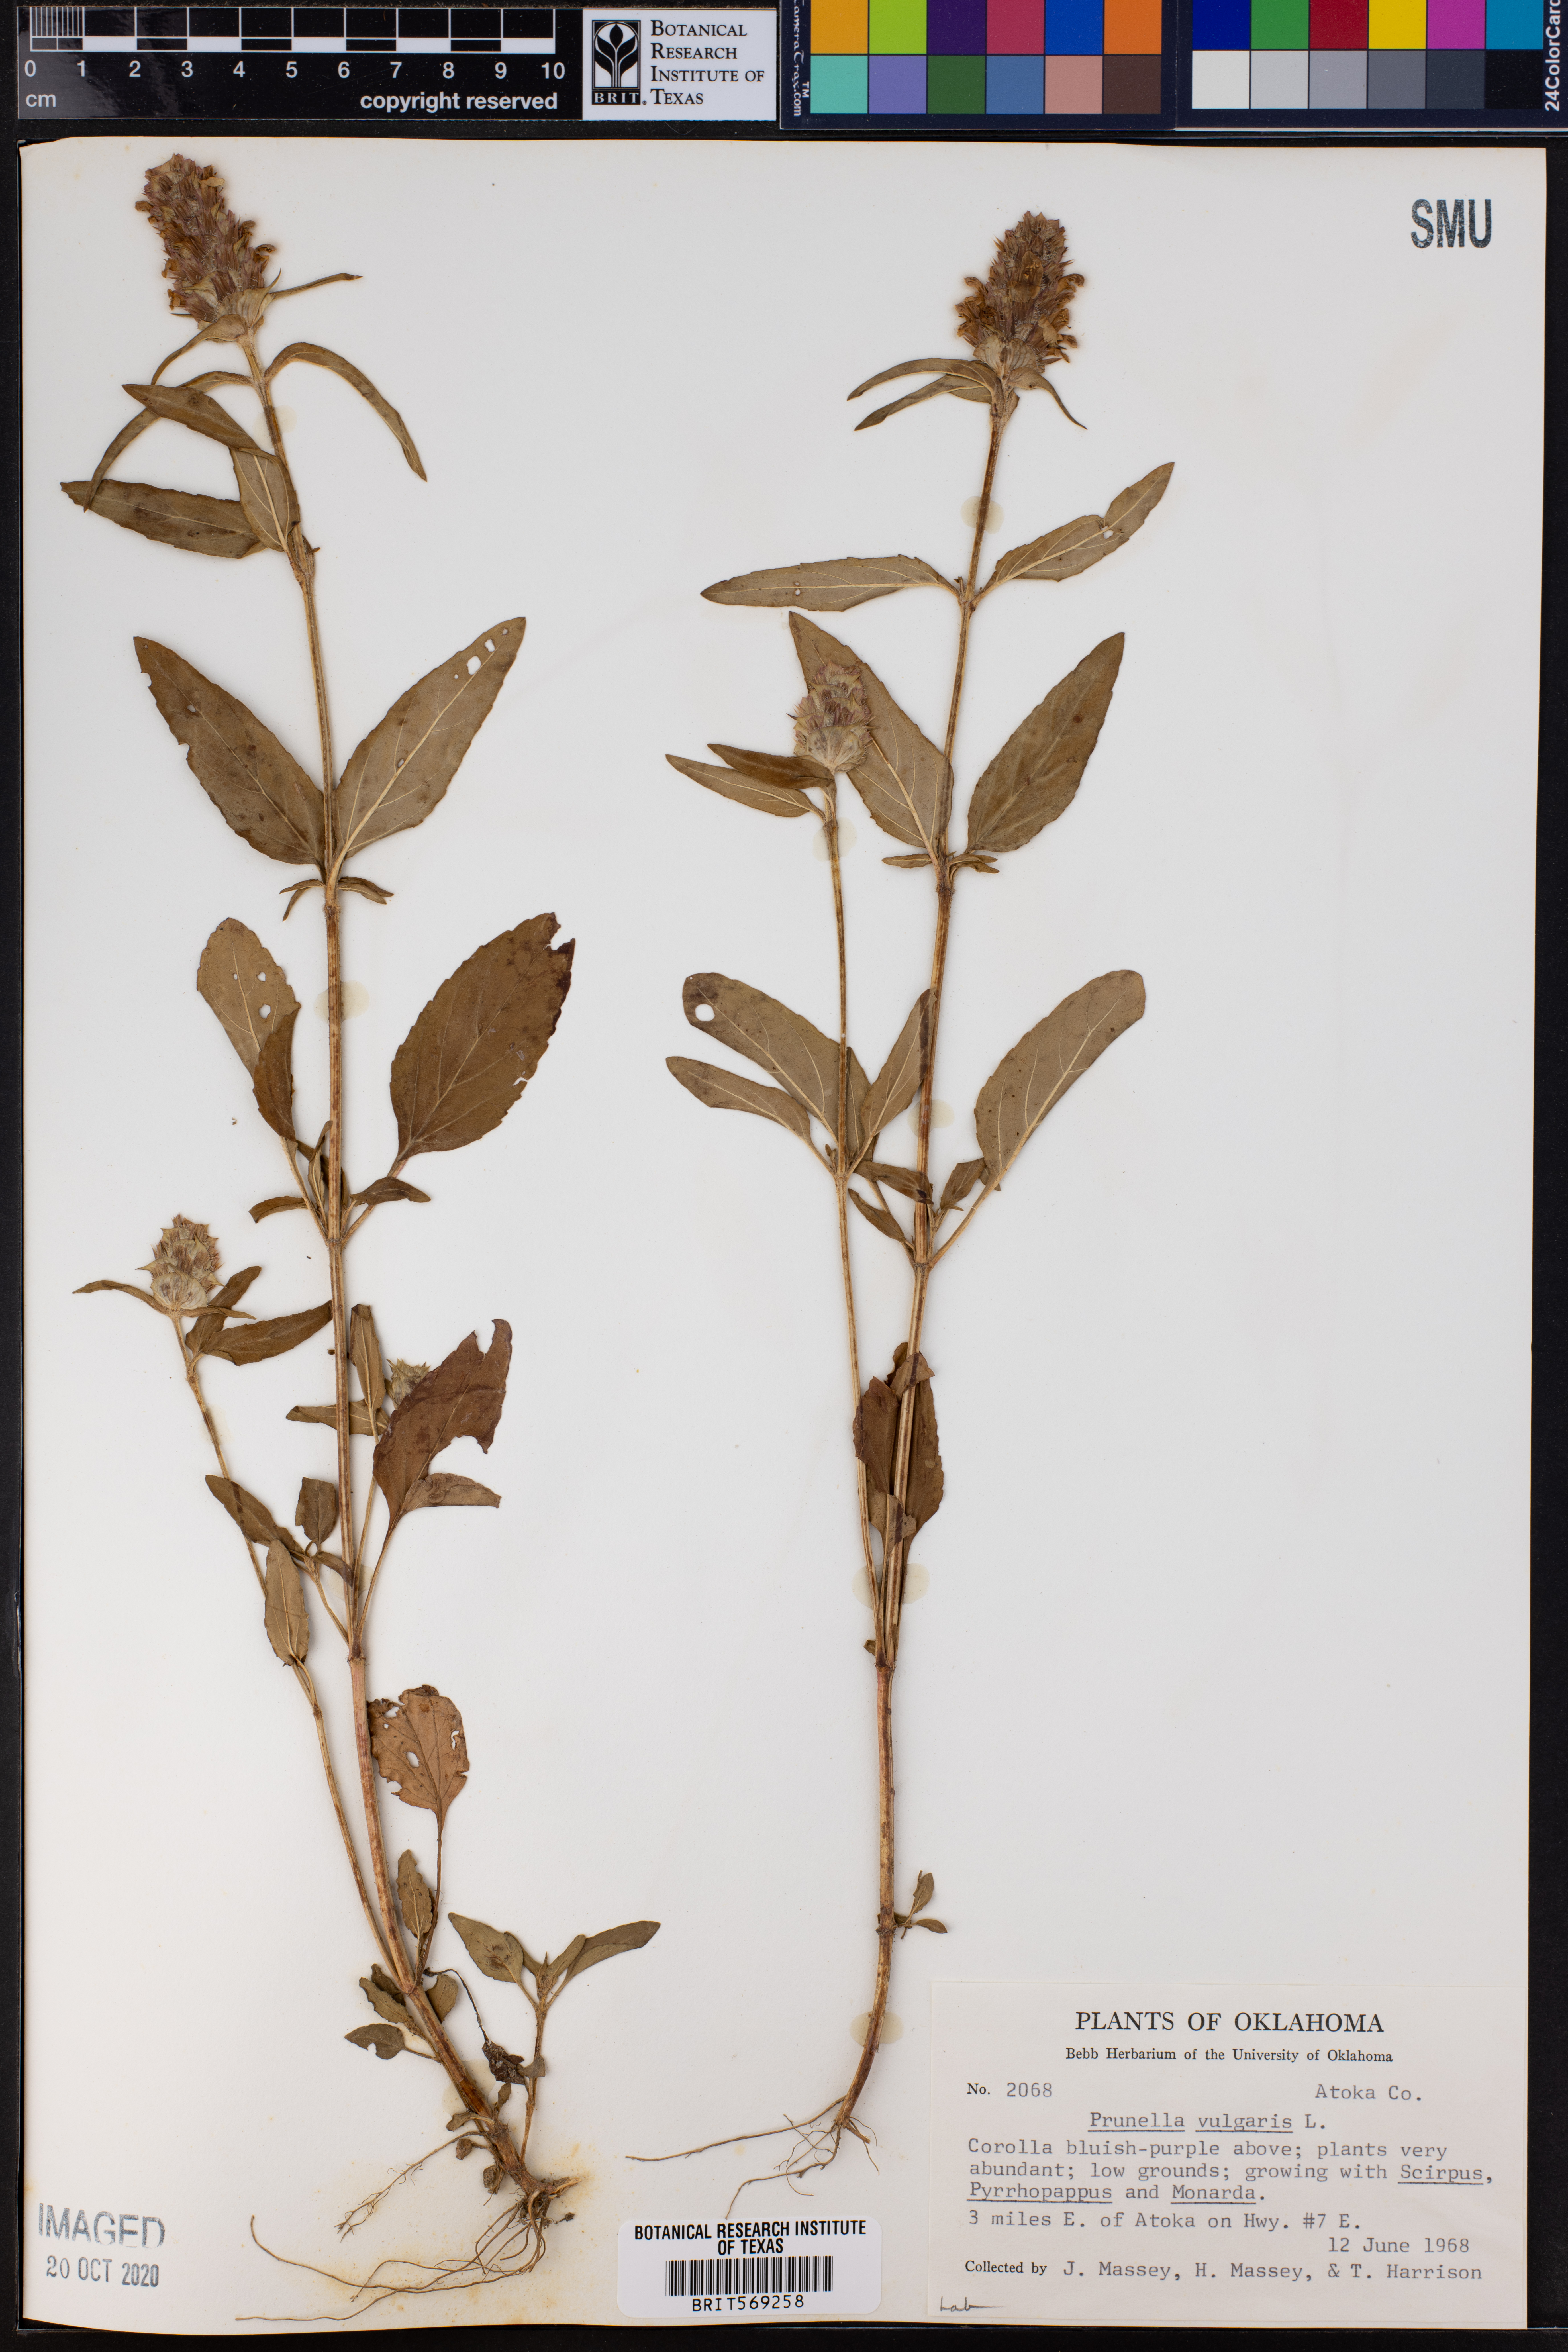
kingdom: Plantae
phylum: Tracheophyta
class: Magnoliopsida
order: Lamiales
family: Lamiaceae
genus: Prunella
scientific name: Prunella vulgaris
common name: Heal-all
